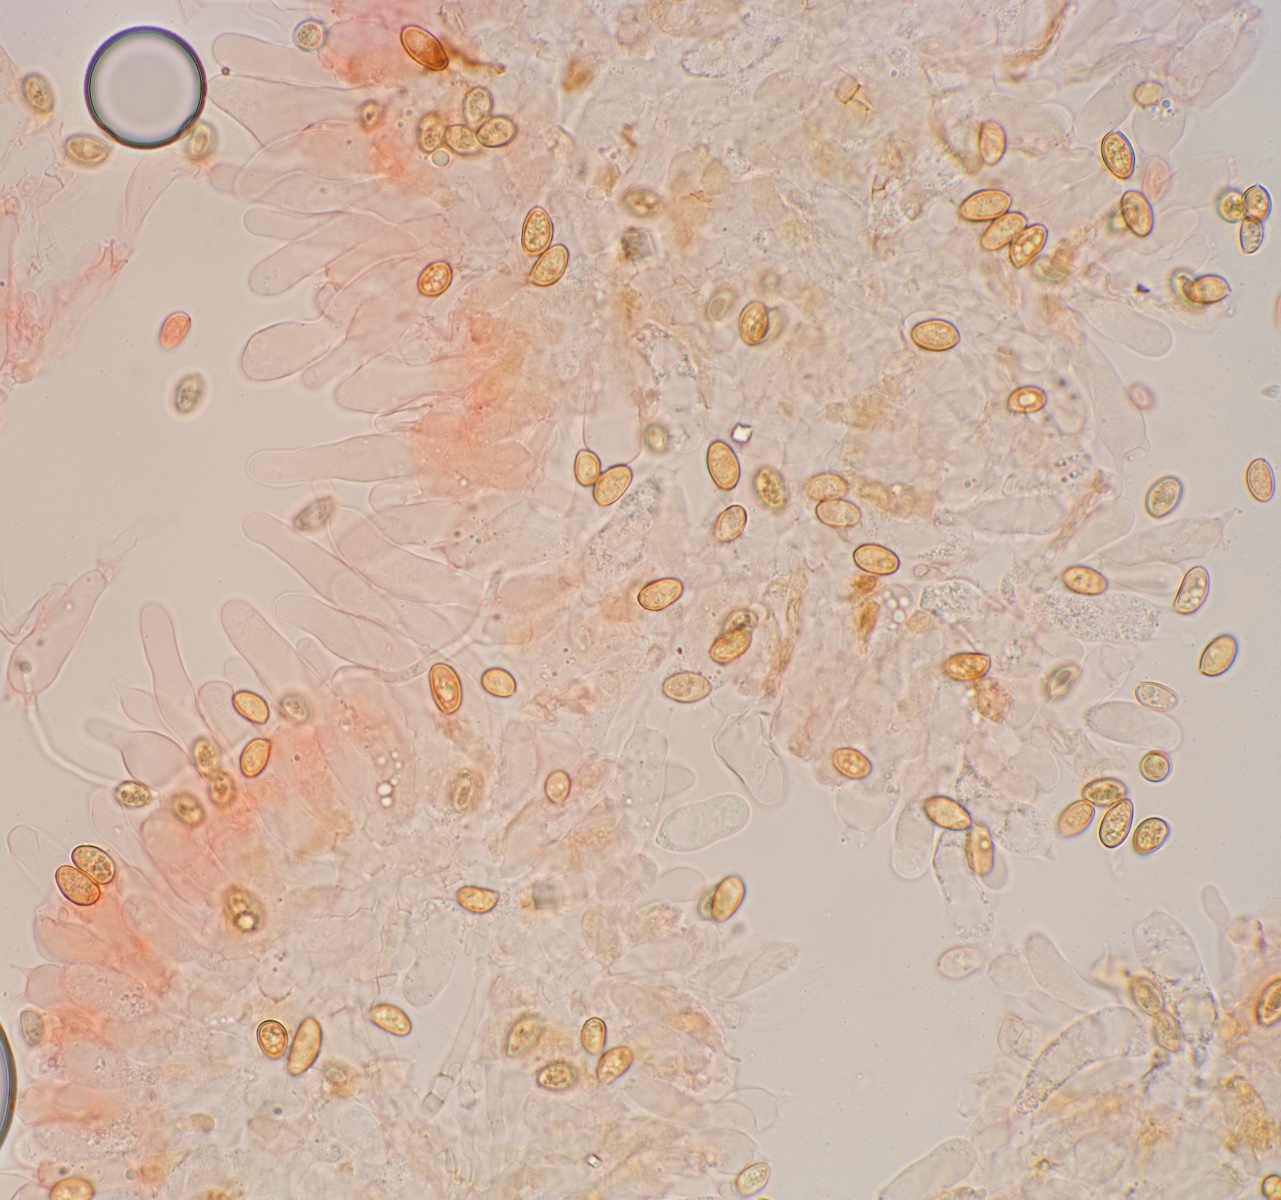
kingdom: Fungi
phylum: Basidiomycota
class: Agaricomycetes
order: Agaricales
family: Crassisporiaceae
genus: Romagnesiella
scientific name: Romagnesiella clavus
